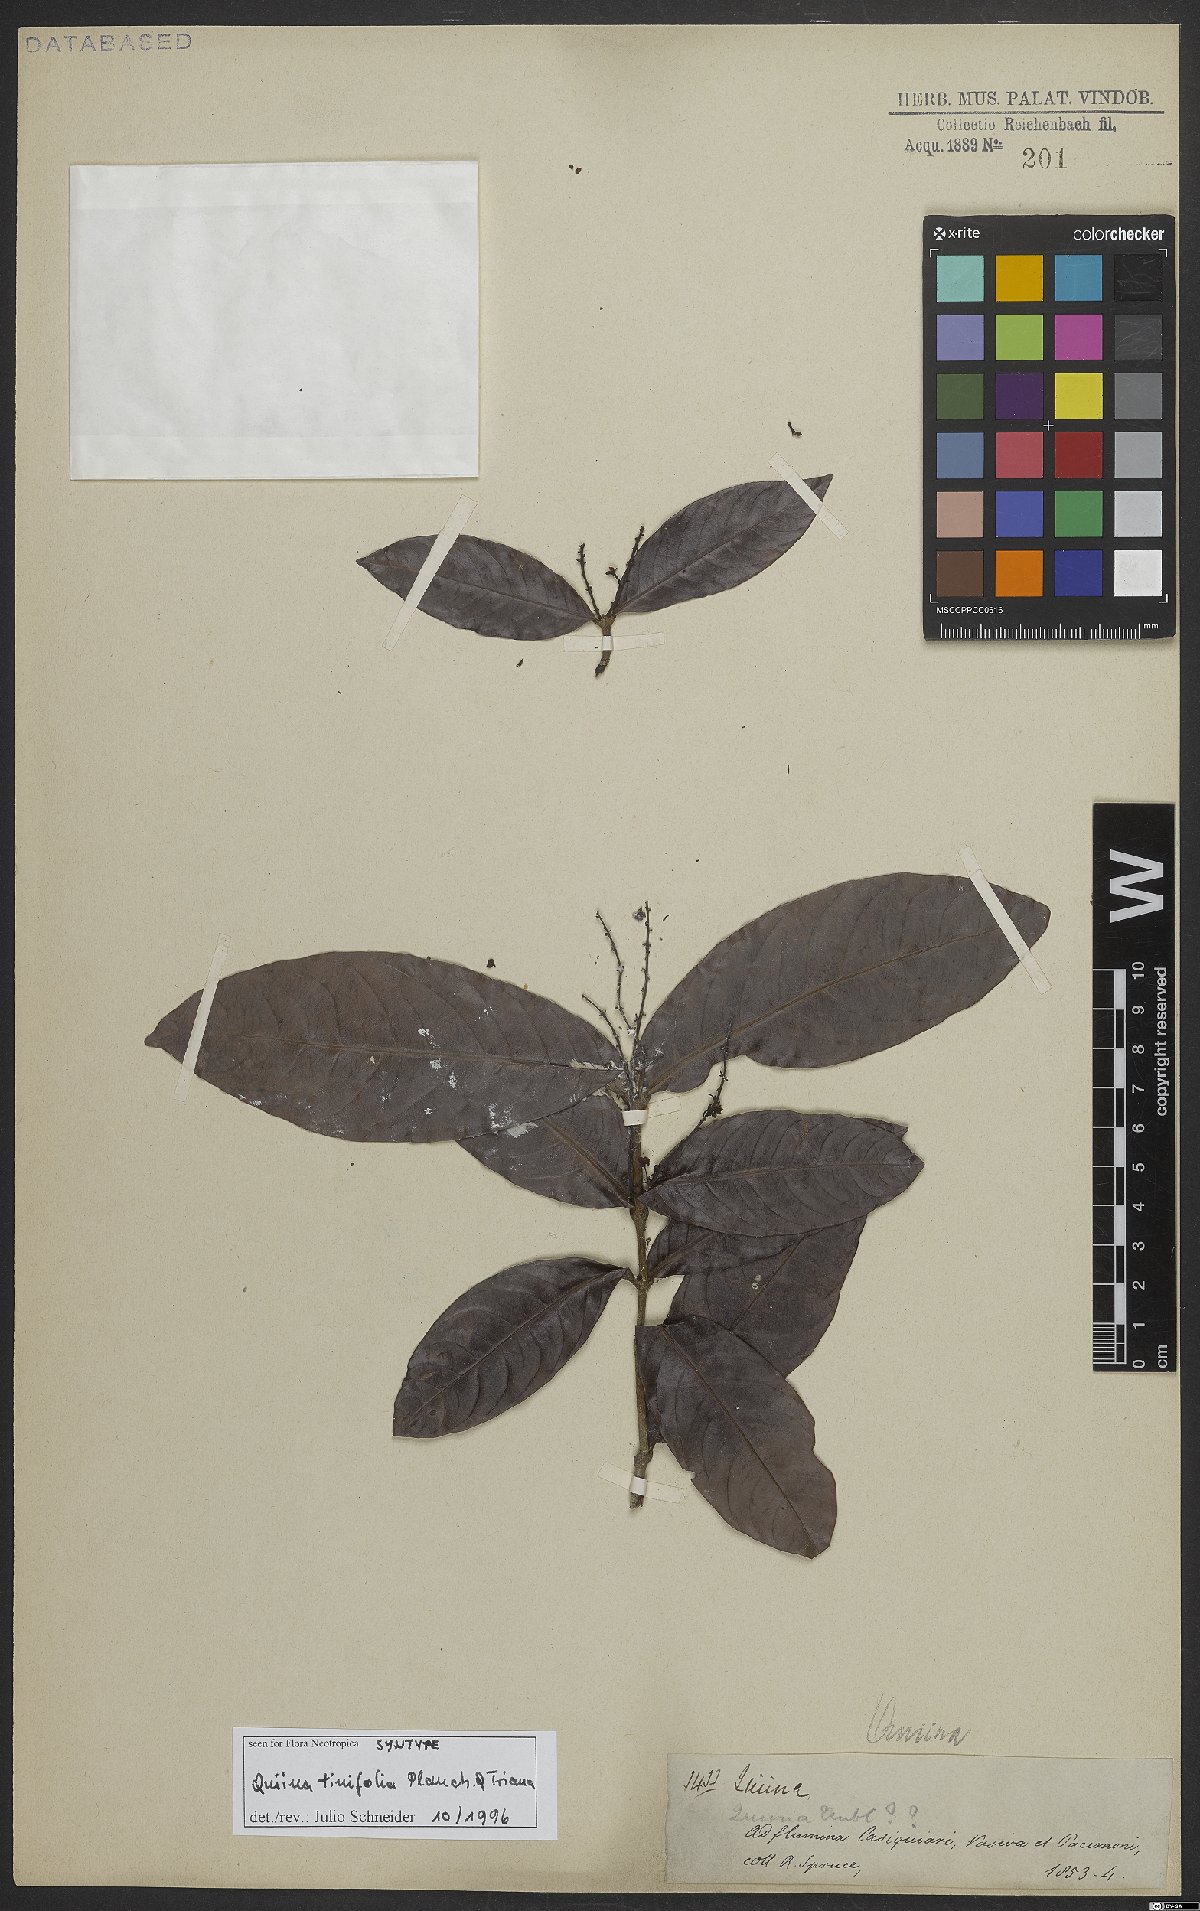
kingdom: Plantae
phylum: Tracheophyta
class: Magnoliopsida
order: Malpighiales
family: Quiinaceae
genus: Quiina
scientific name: Quiina tinifolia
